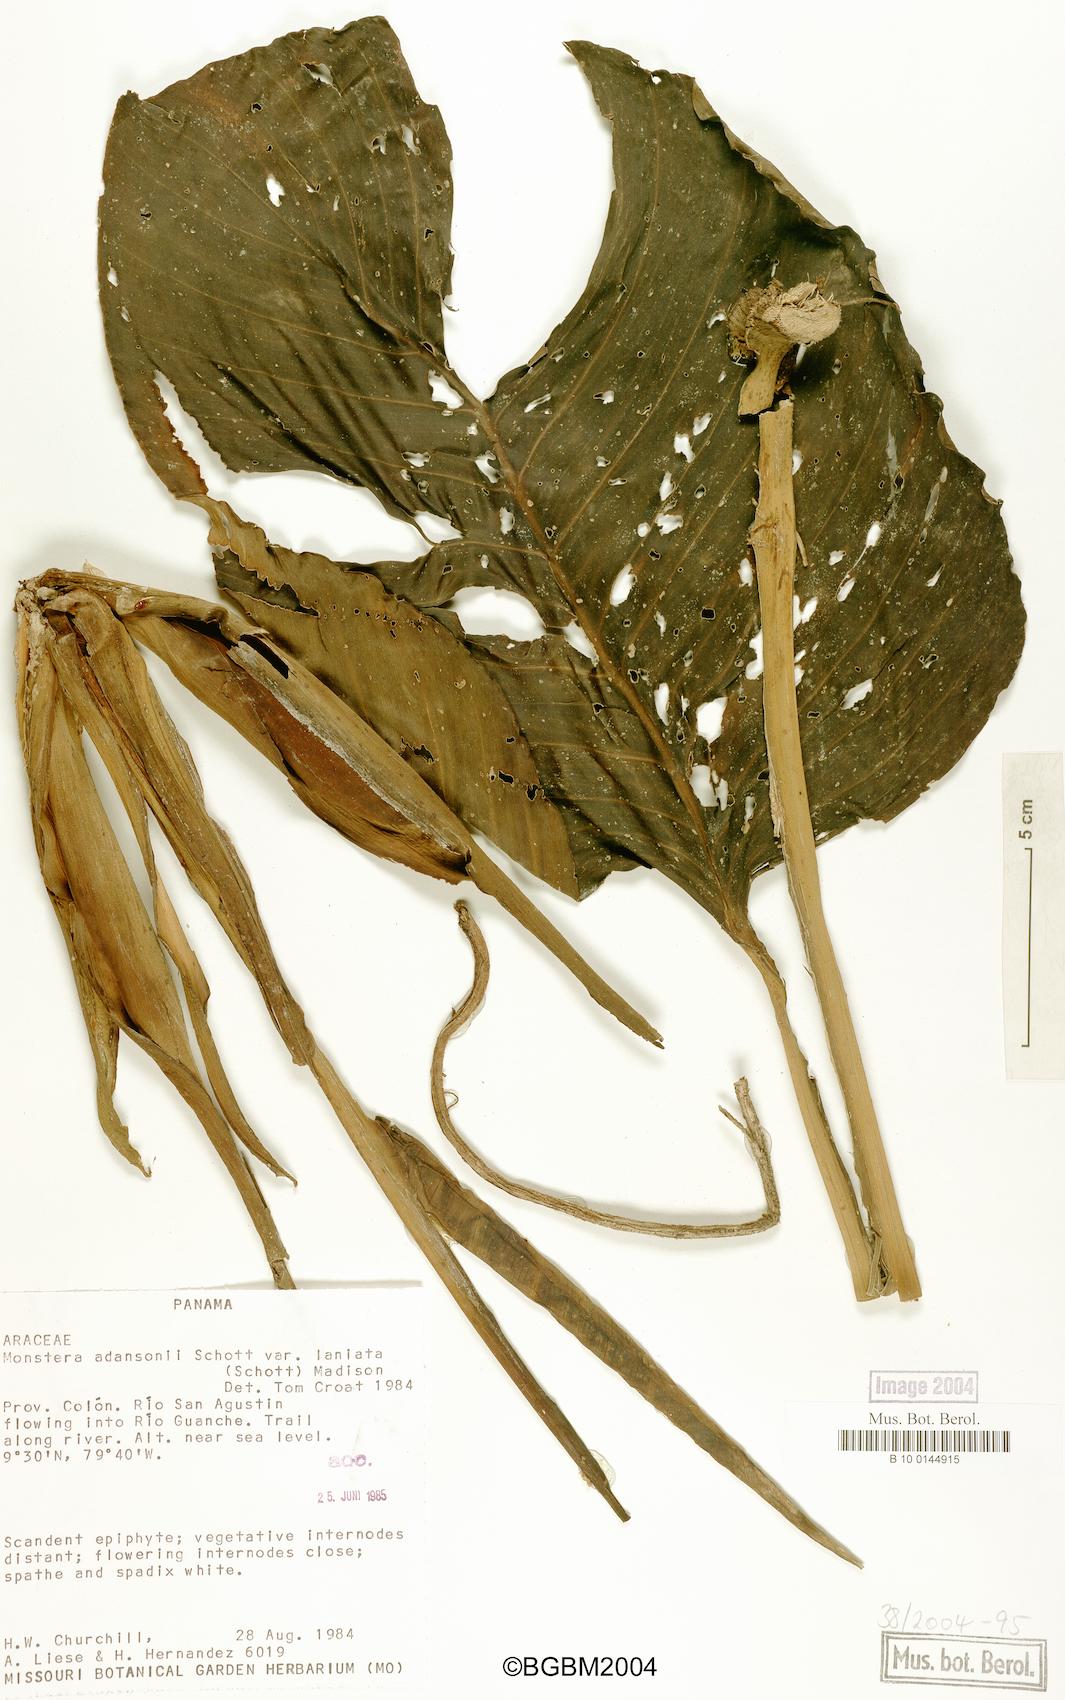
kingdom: Plantae
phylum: Tracheophyta
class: Liliopsida
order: Alismatales
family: Araceae
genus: Monstera
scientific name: Monstera adansonii
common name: Tarovine
